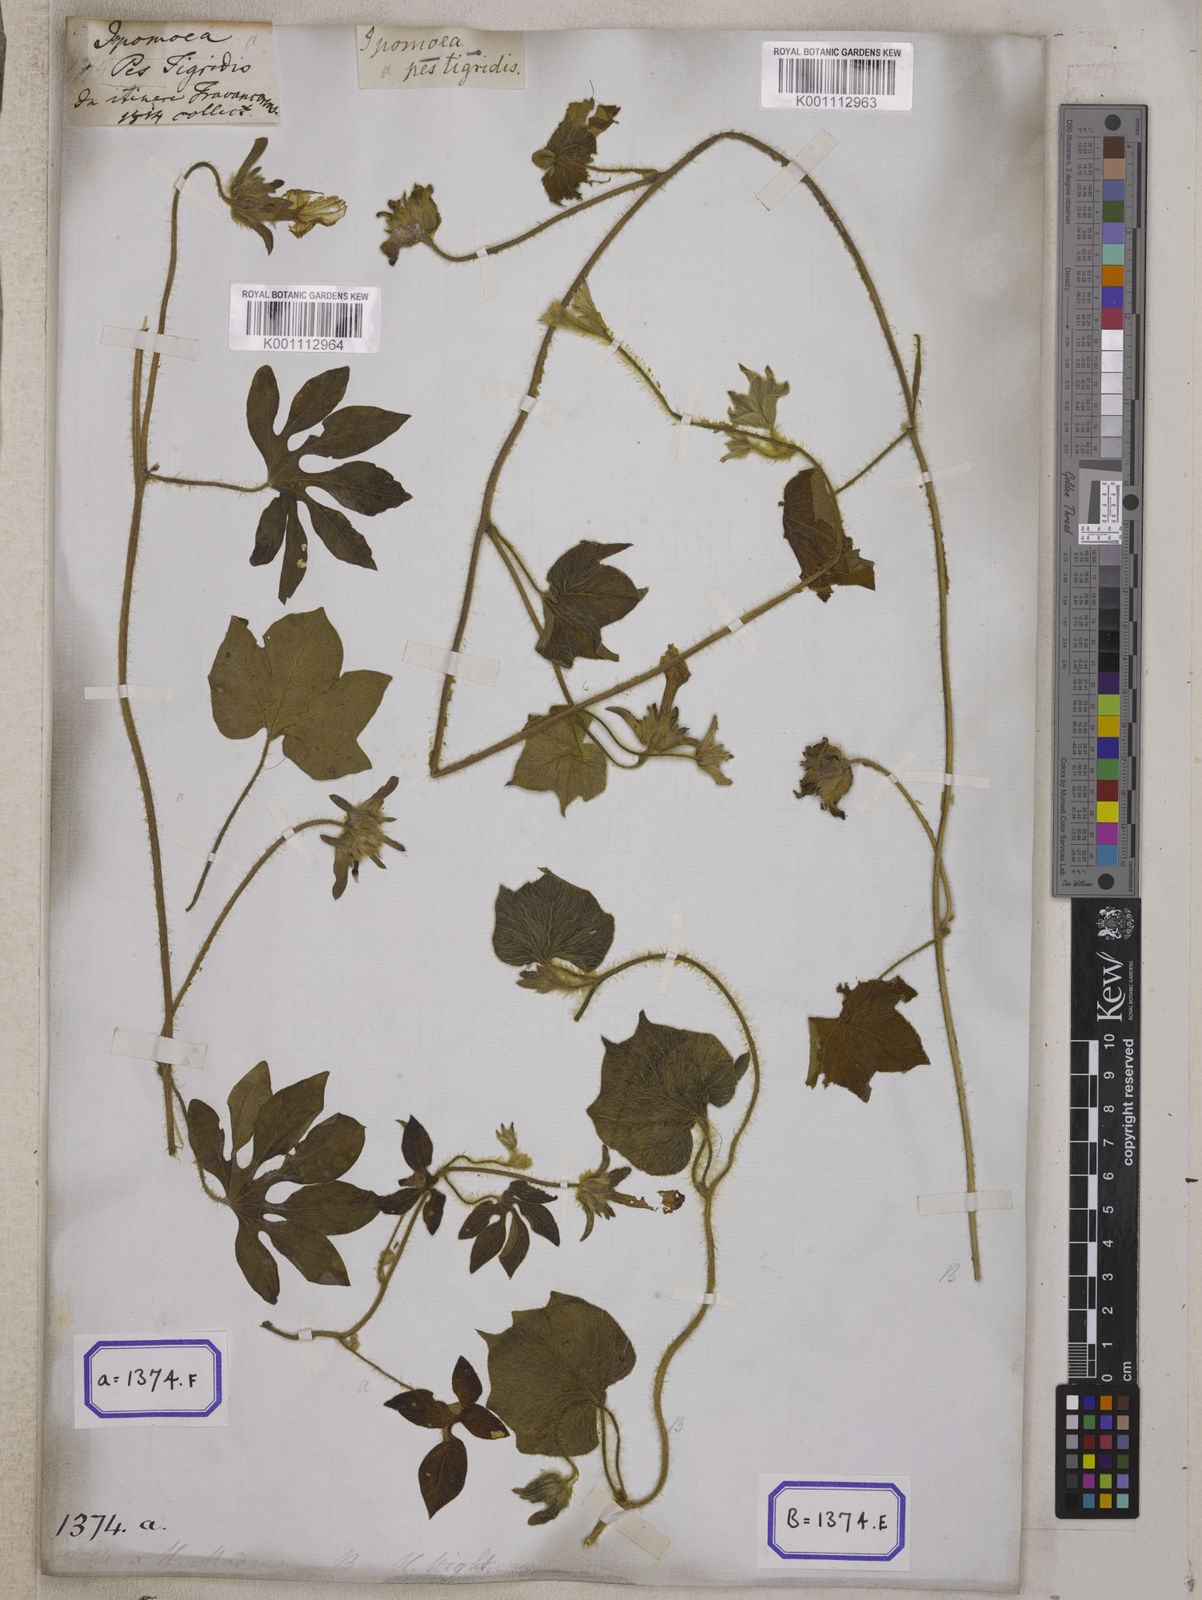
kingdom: Plantae
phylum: Tracheophyta
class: Magnoliopsida
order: Solanales
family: Convolvulaceae
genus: Ipomoea
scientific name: Ipomoea pes-tigridis
